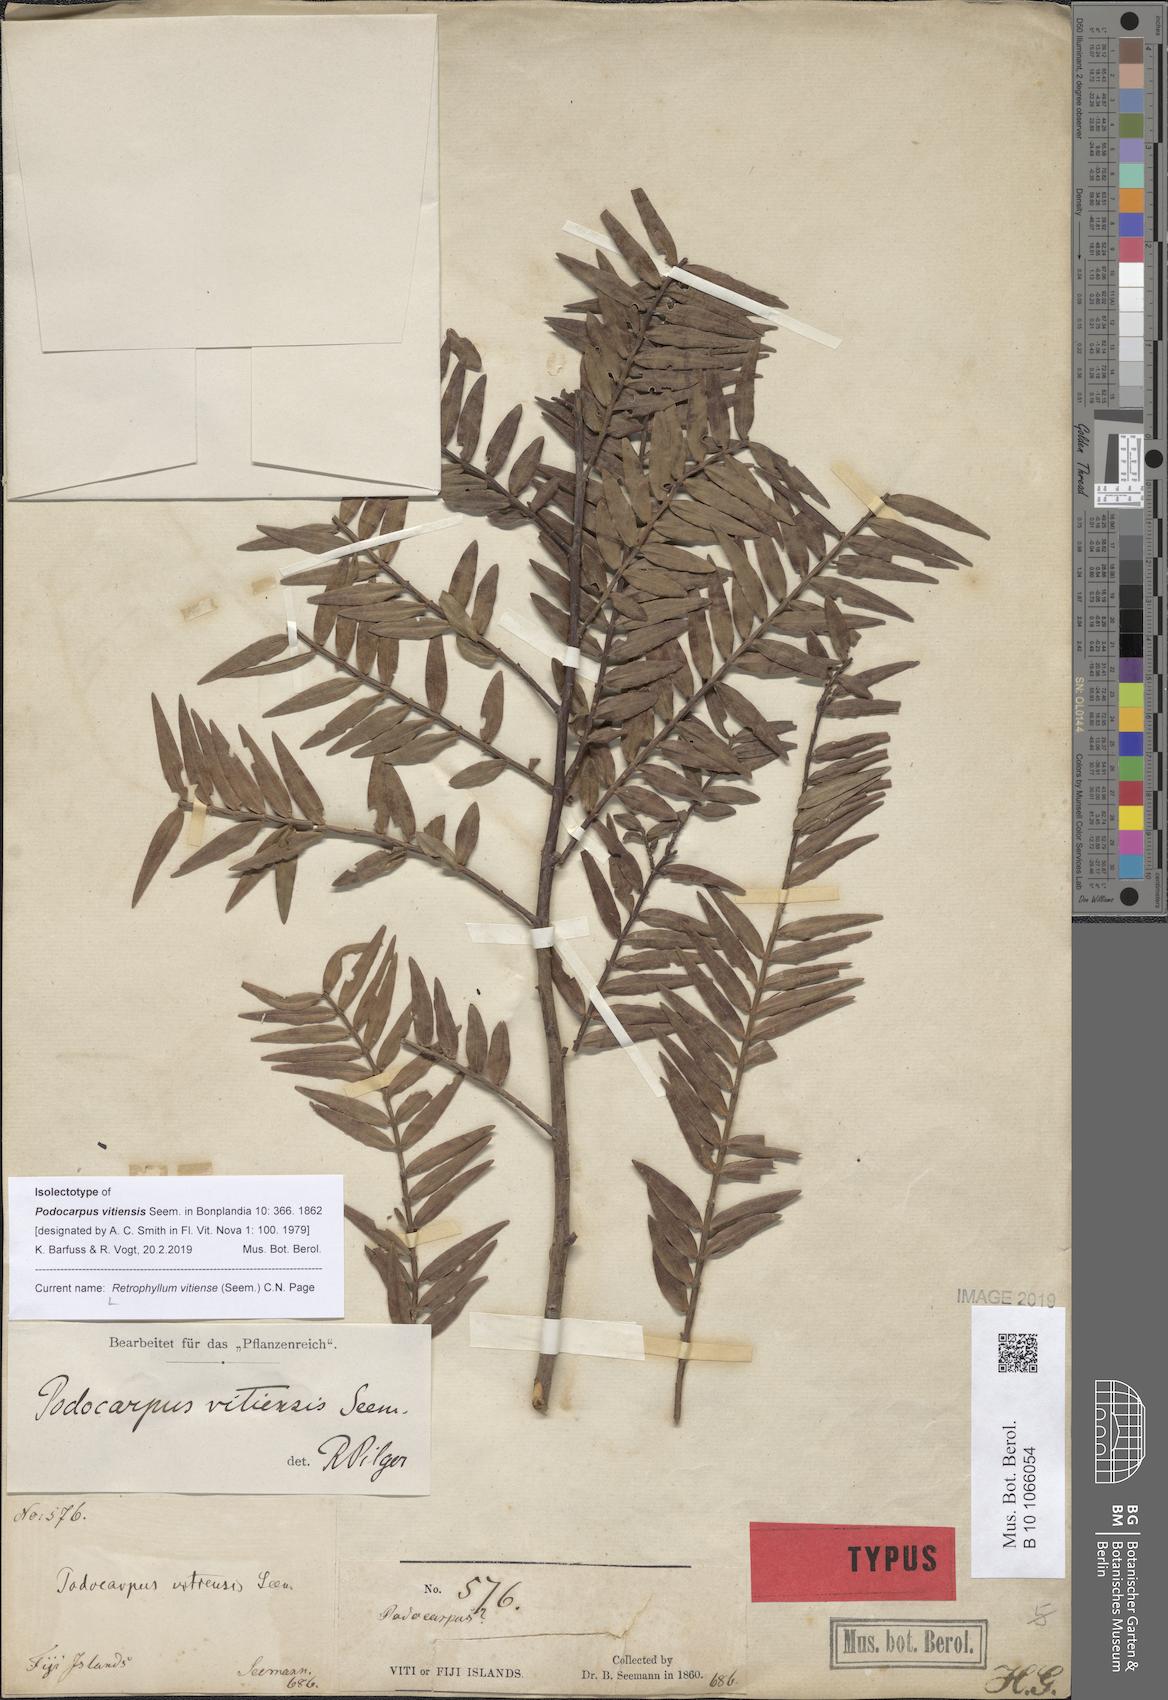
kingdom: Plantae
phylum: Tracheophyta
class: Pinopsida
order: Pinales
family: Podocarpaceae
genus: Retrophyllum
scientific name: Retrophyllum vitiense
